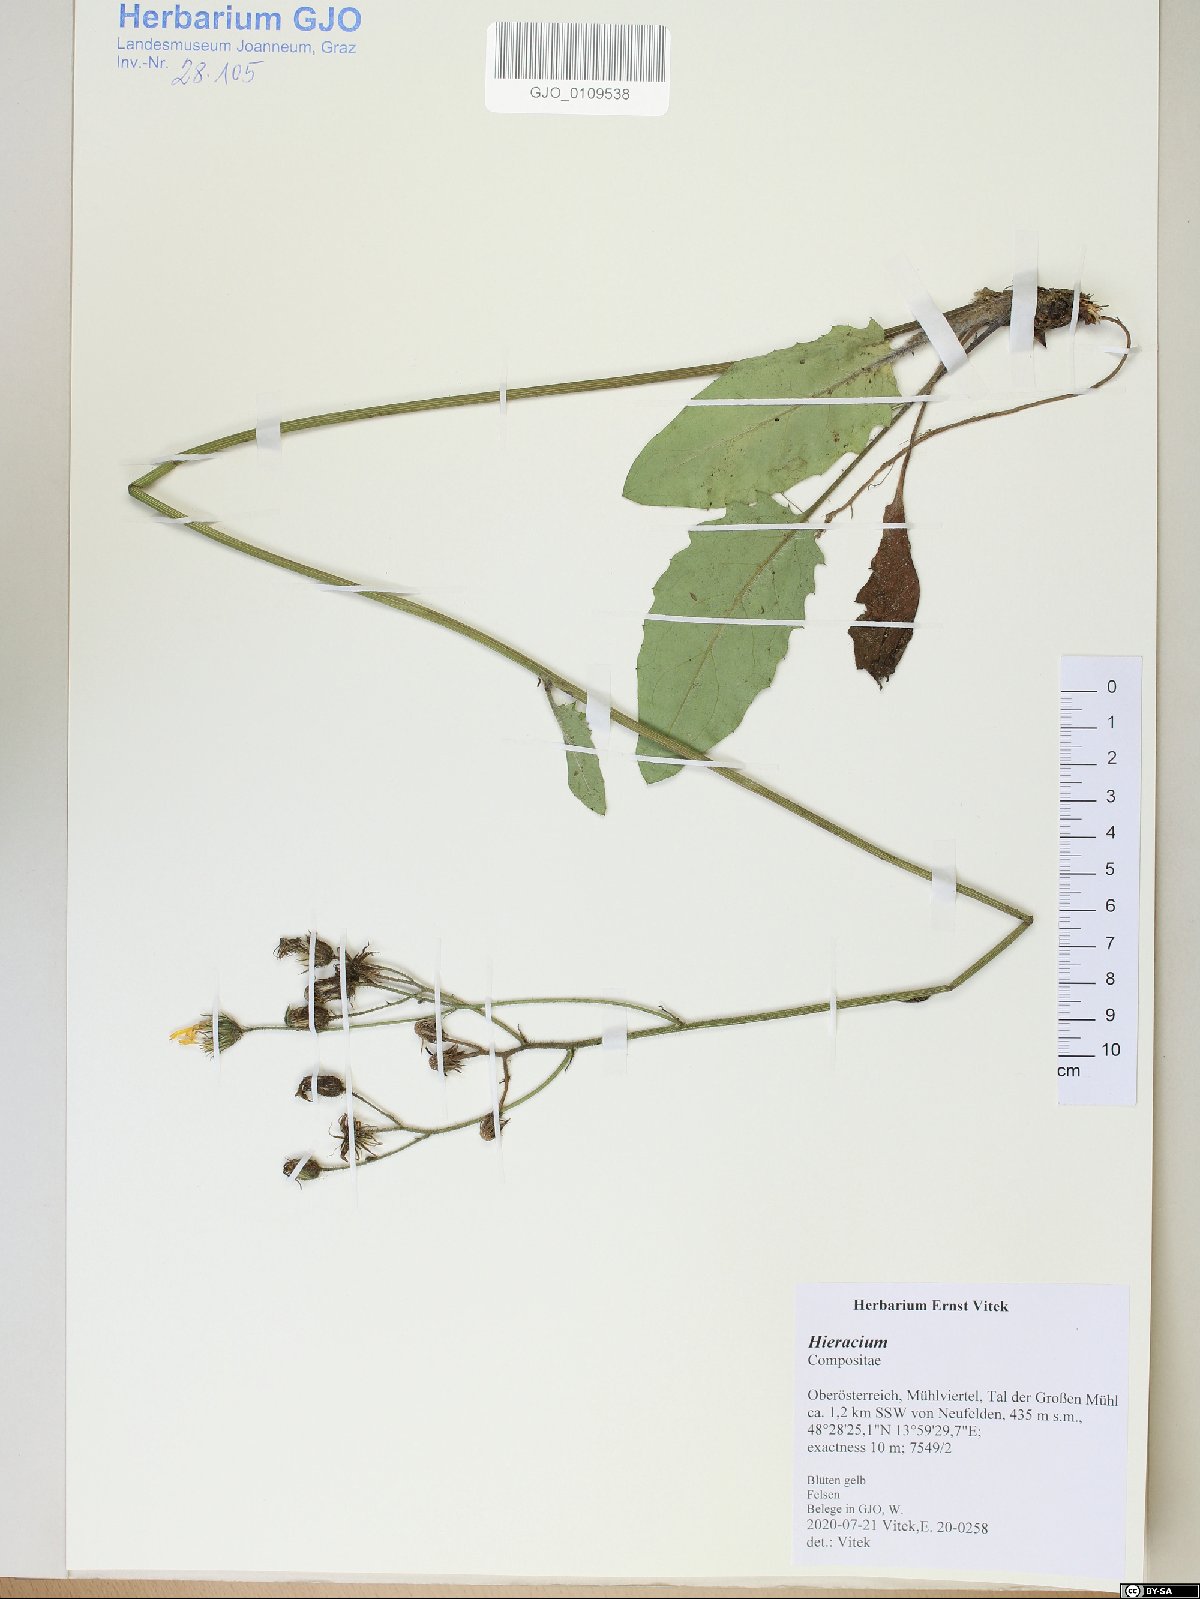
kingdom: Plantae
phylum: Tracheophyta
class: Magnoliopsida
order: Asterales
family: Asteraceae
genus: Hieracium
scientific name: Hieracium
